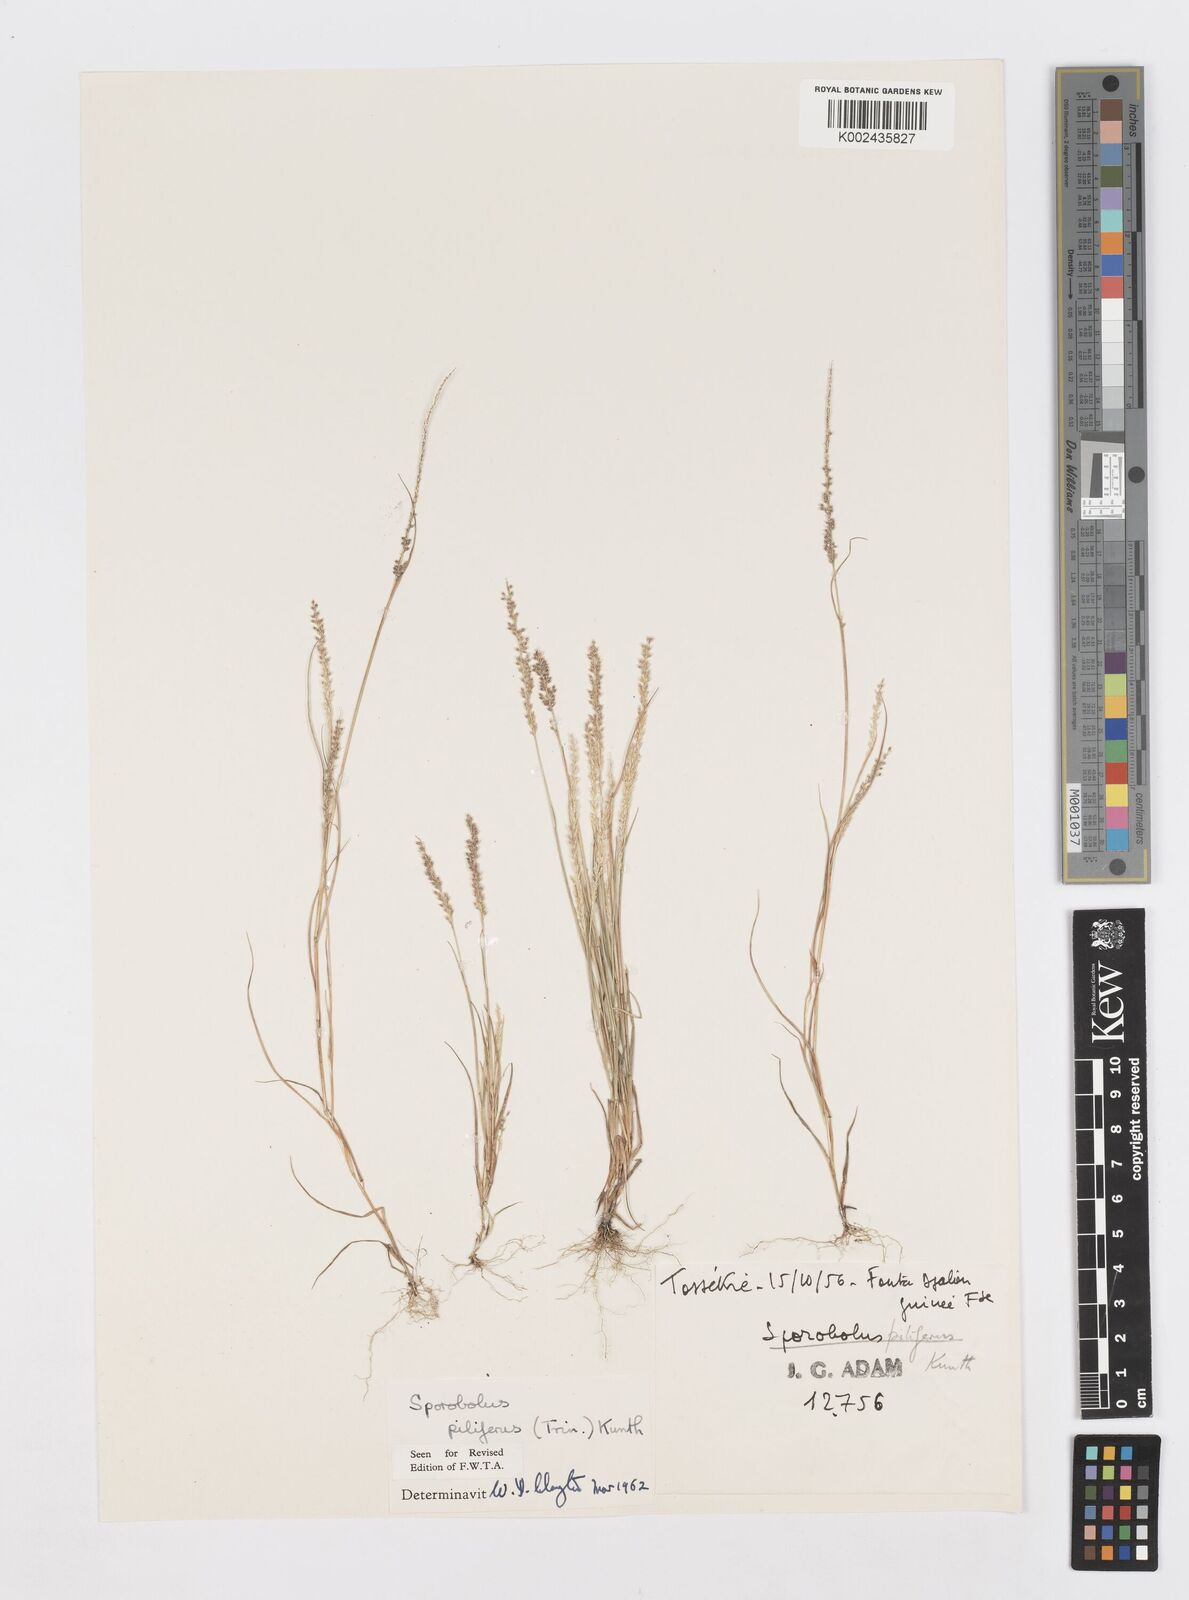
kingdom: Plantae
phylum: Tracheophyta
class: Liliopsida
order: Poales
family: Poaceae
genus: Sporobolus
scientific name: Sporobolus pilifer
